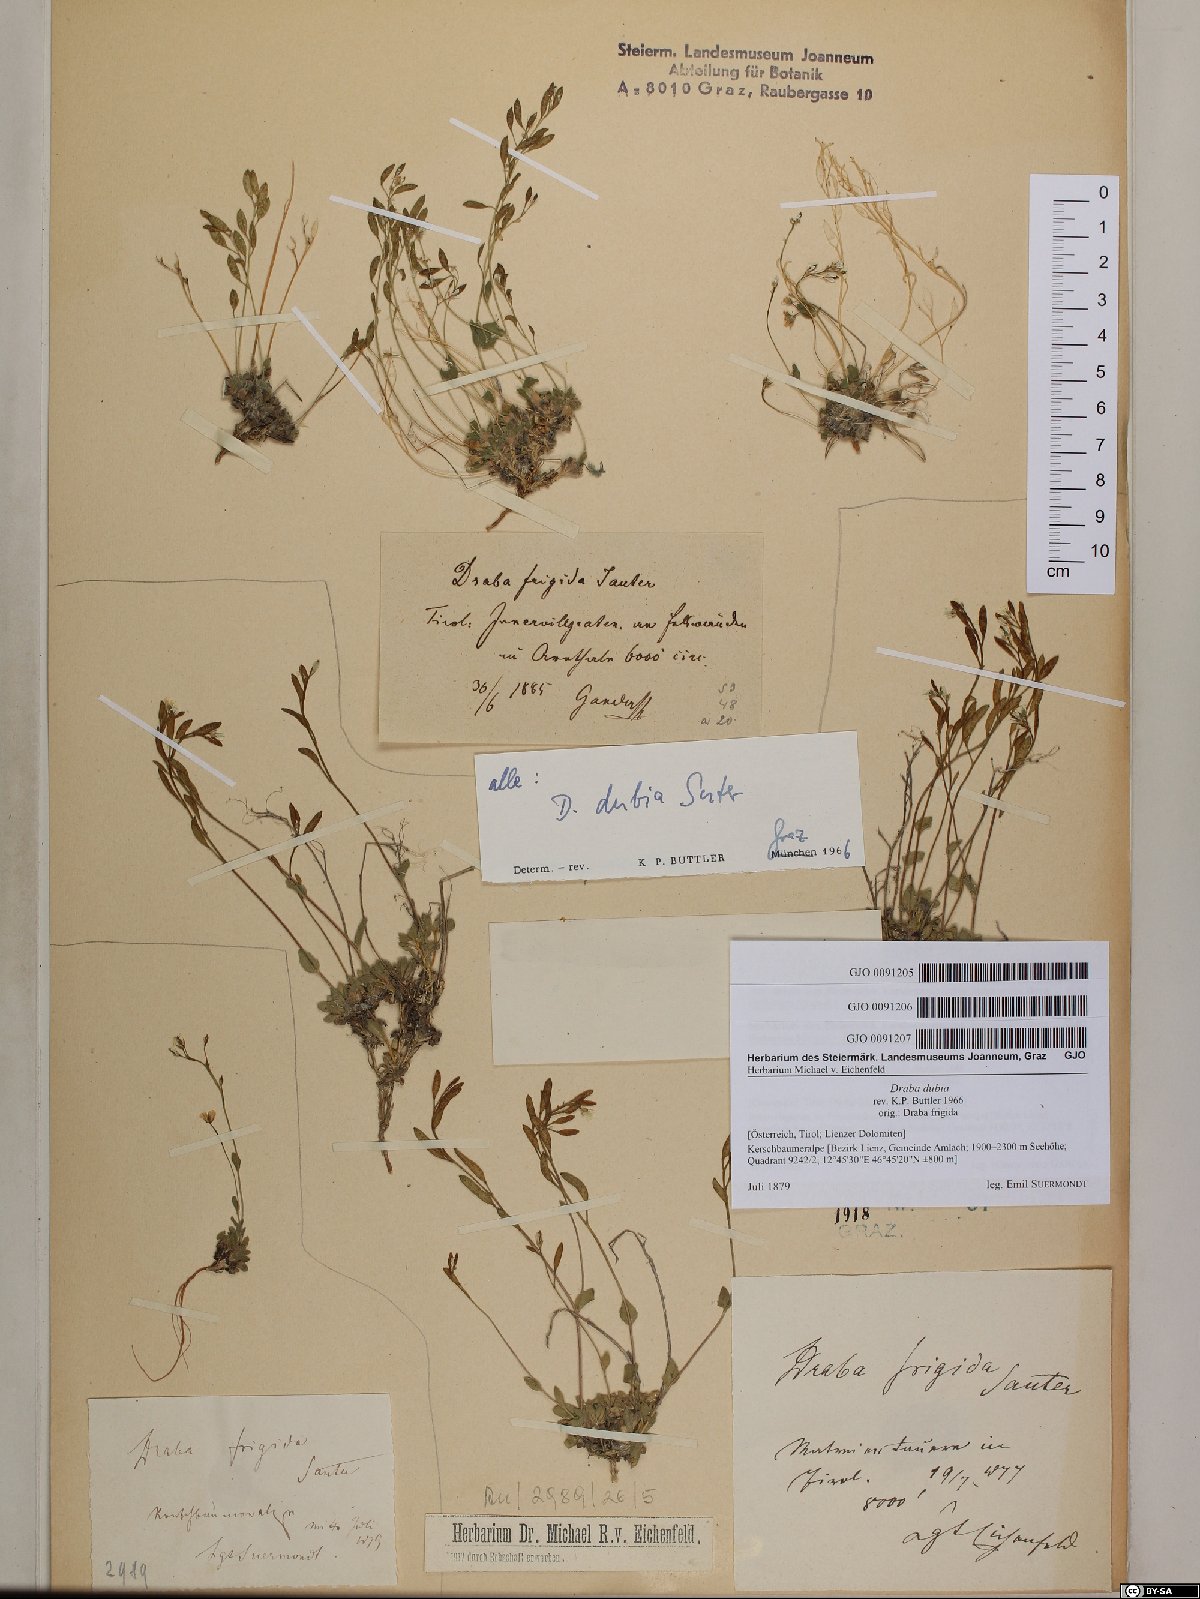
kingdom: Plantae
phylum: Tracheophyta
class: Magnoliopsida
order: Brassicales
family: Brassicaceae
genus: Draba
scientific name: Draba dubia
